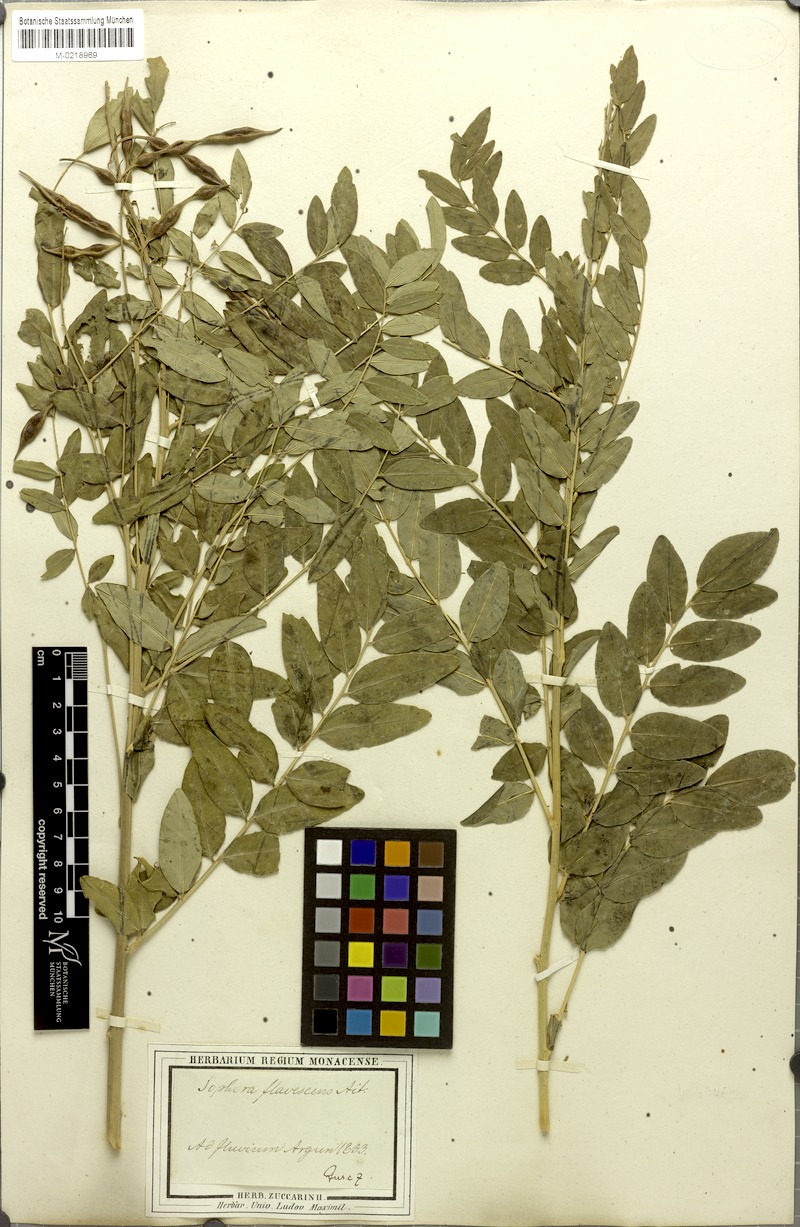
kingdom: Plantae
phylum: Tracheophyta
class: Magnoliopsida
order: Fabales
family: Fabaceae
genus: Sophora
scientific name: Sophora flavescens
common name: Shrubby sophora
